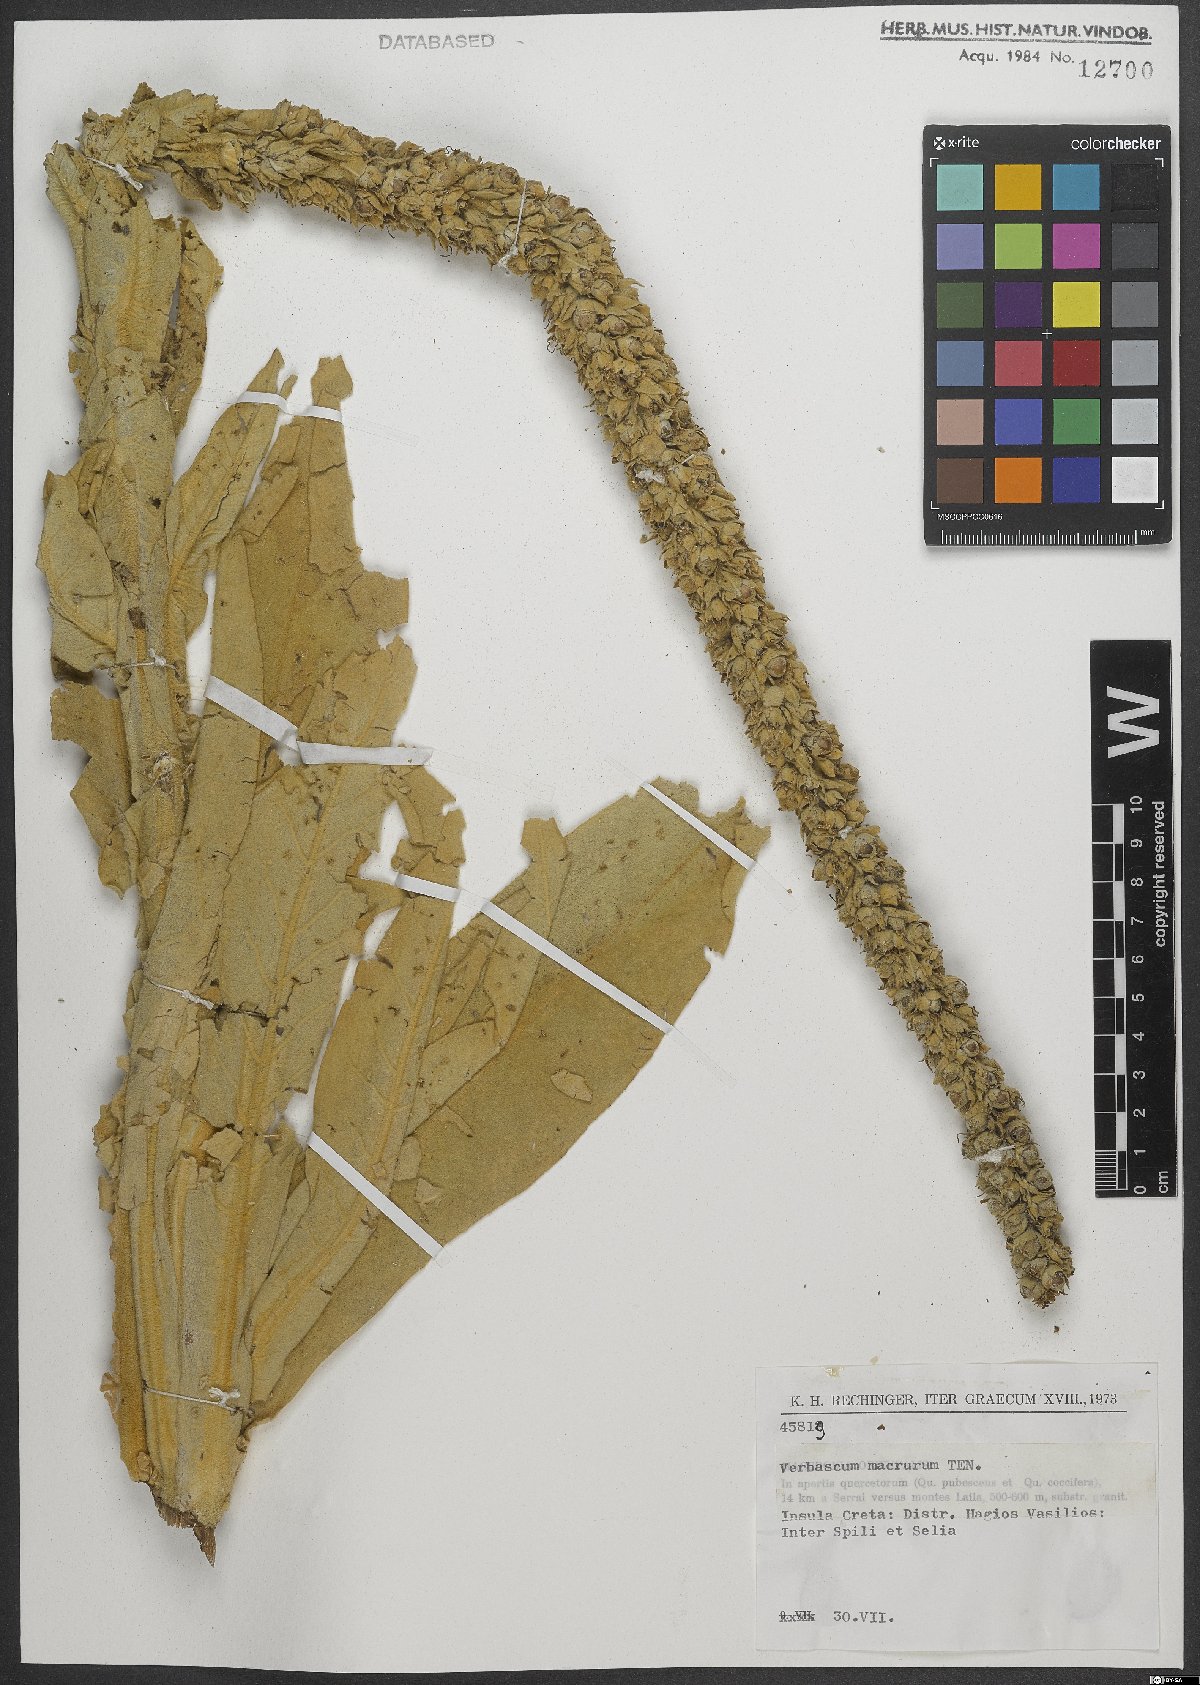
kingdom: Plantae
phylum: Tracheophyta
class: Magnoliopsida
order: Lamiales
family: Scrophulariaceae
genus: Verbascum
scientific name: Verbascum macrurum
